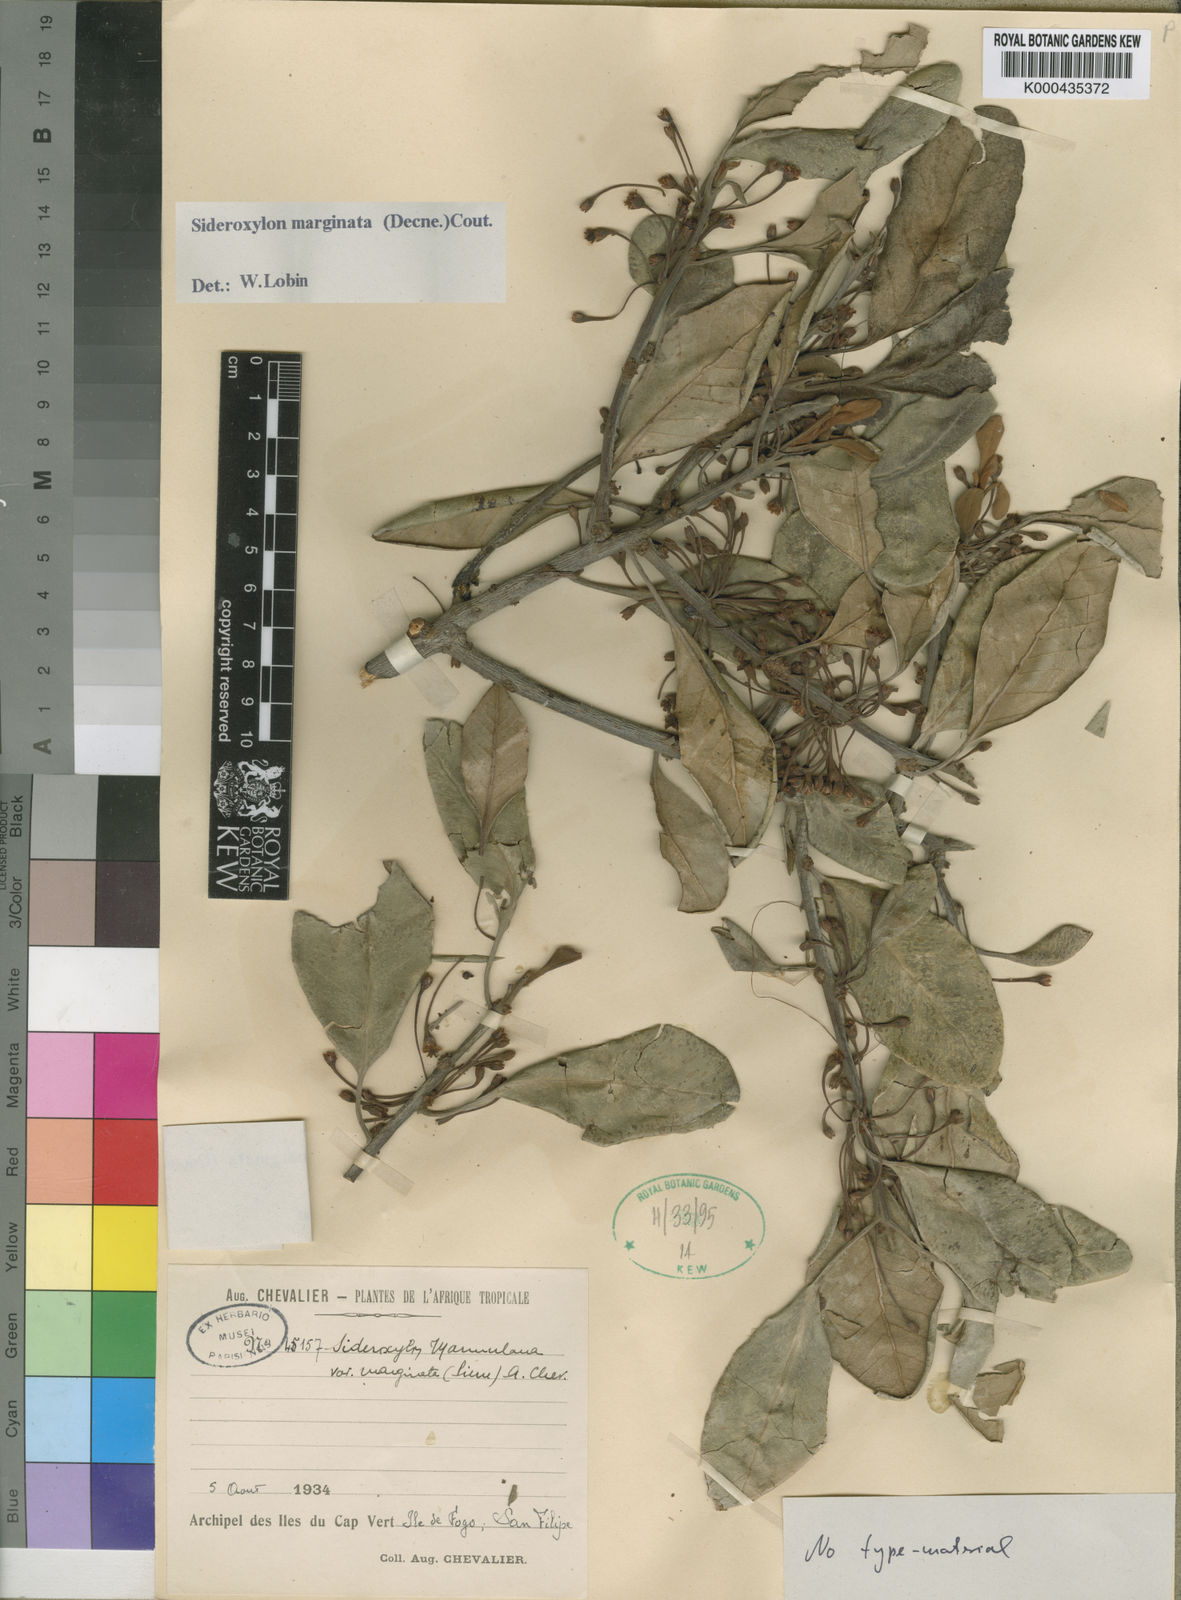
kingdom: Plantae
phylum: Tracheophyta
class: Magnoliopsida
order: Ericales
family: Sapotaceae
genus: Sideroxylon
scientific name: Sideroxylon marginatum
